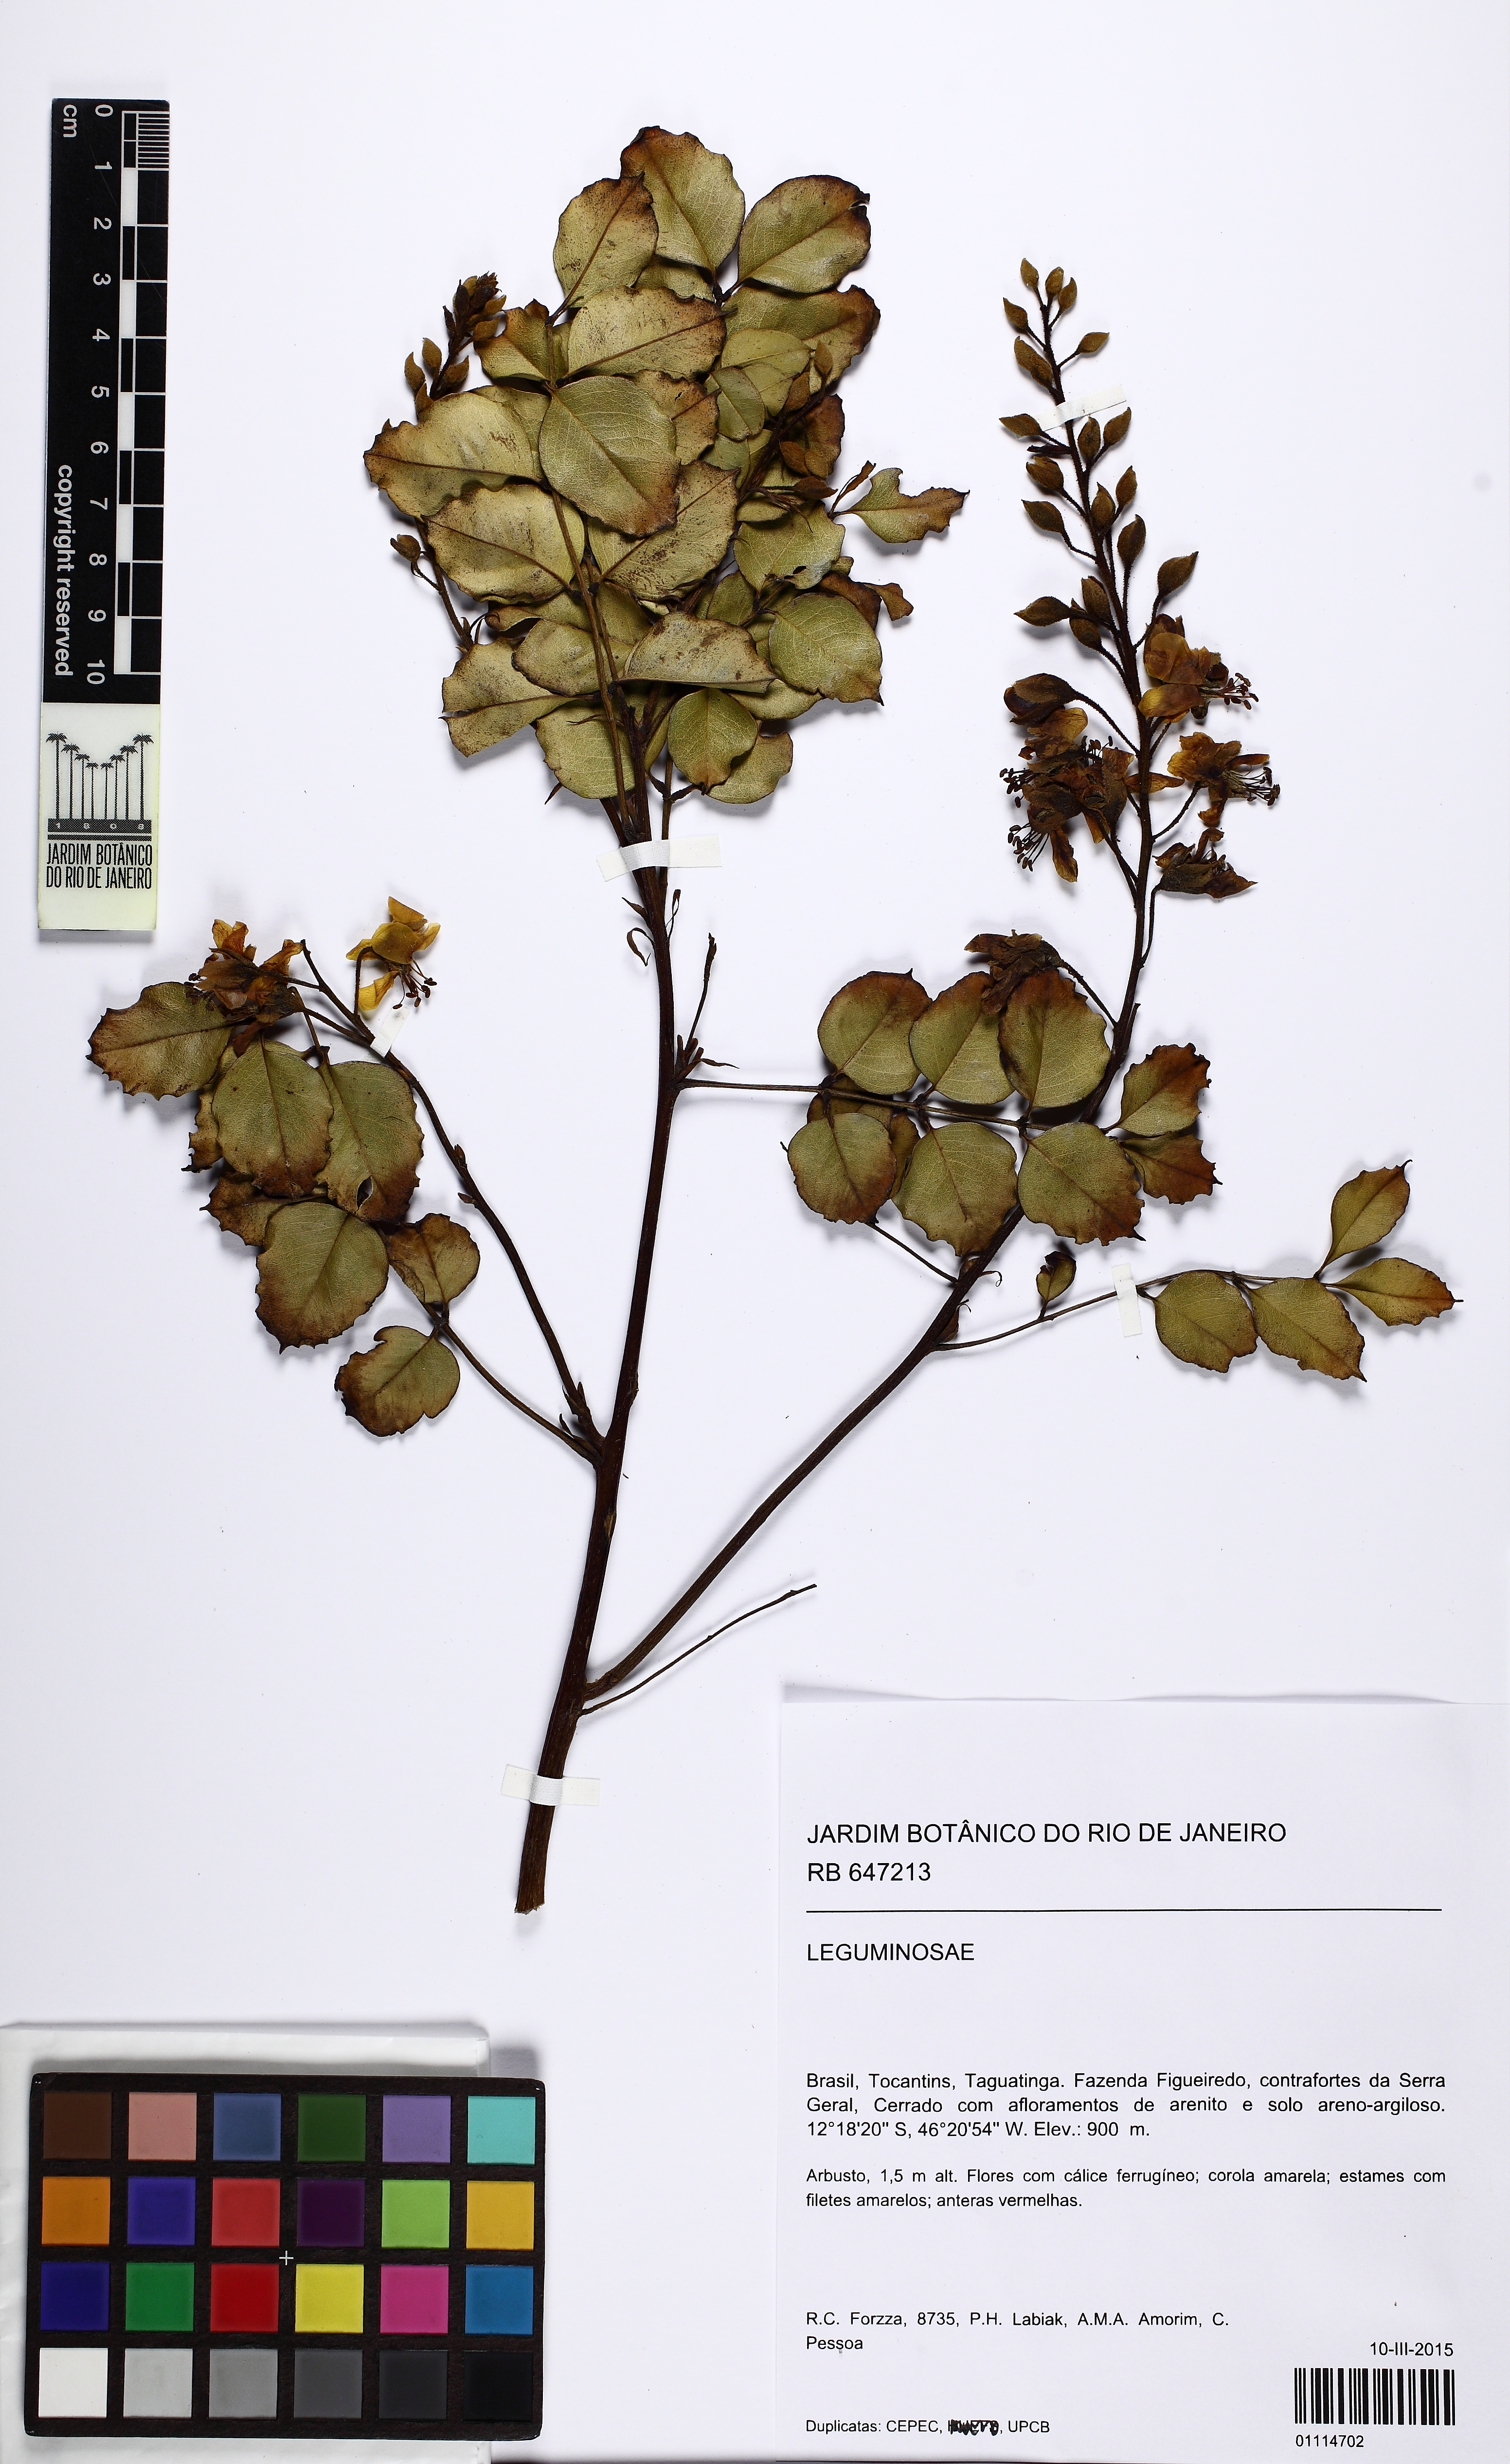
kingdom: Plantae
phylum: Tracheophyta
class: Magnoliopsida
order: Fabales
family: Fabaceae
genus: Cenostigma
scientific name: Cenostigma macrophyllum
